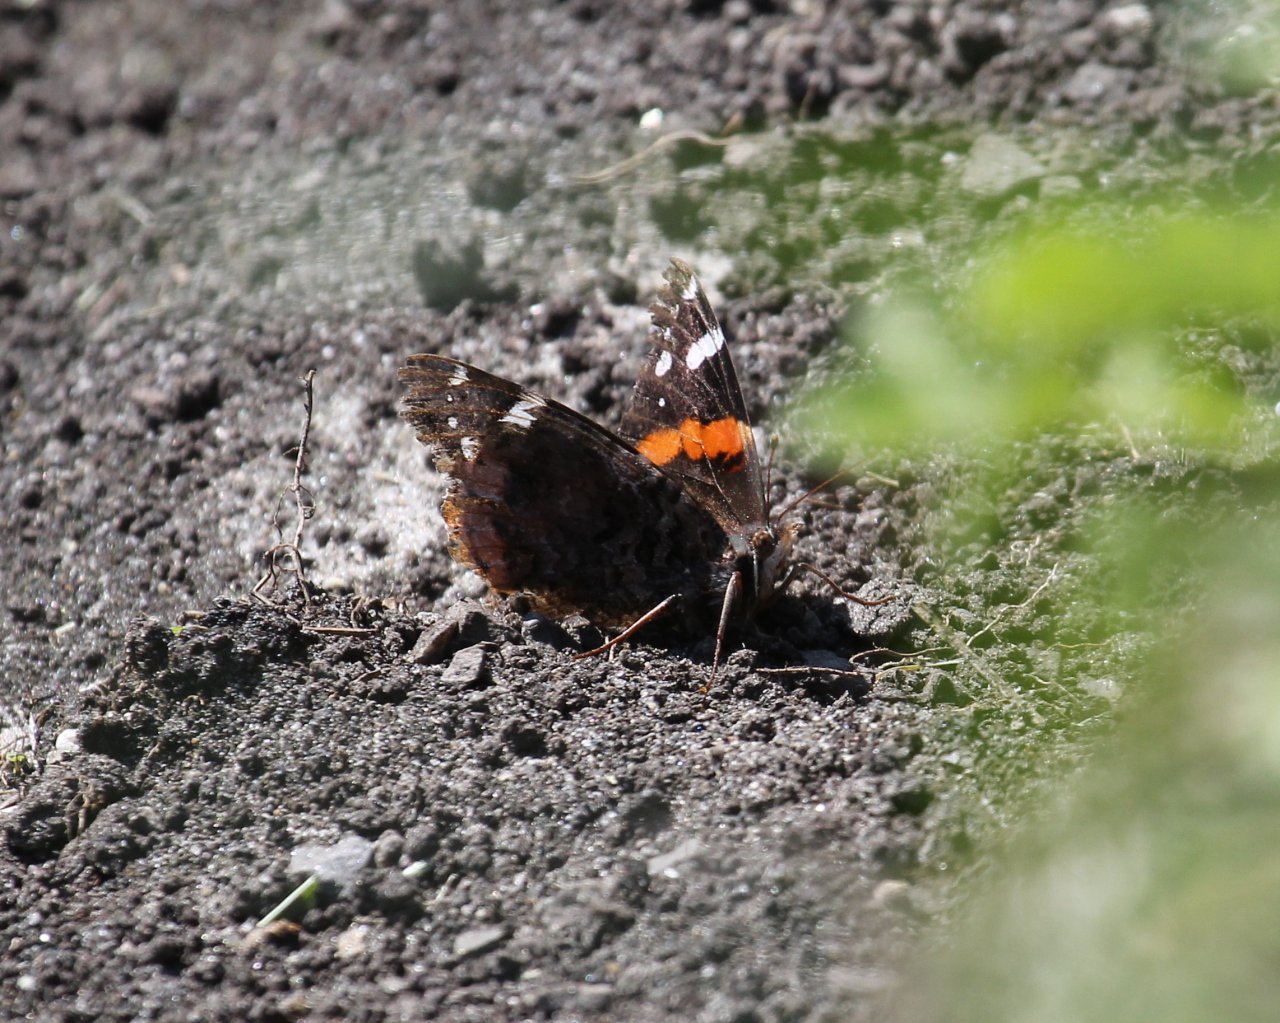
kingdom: Animalia
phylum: Arthropoda
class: Insecta
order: Lepidoptera
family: Nymphalidae
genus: Vanessa
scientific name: Vanessa atalanta
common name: Red Admiral
